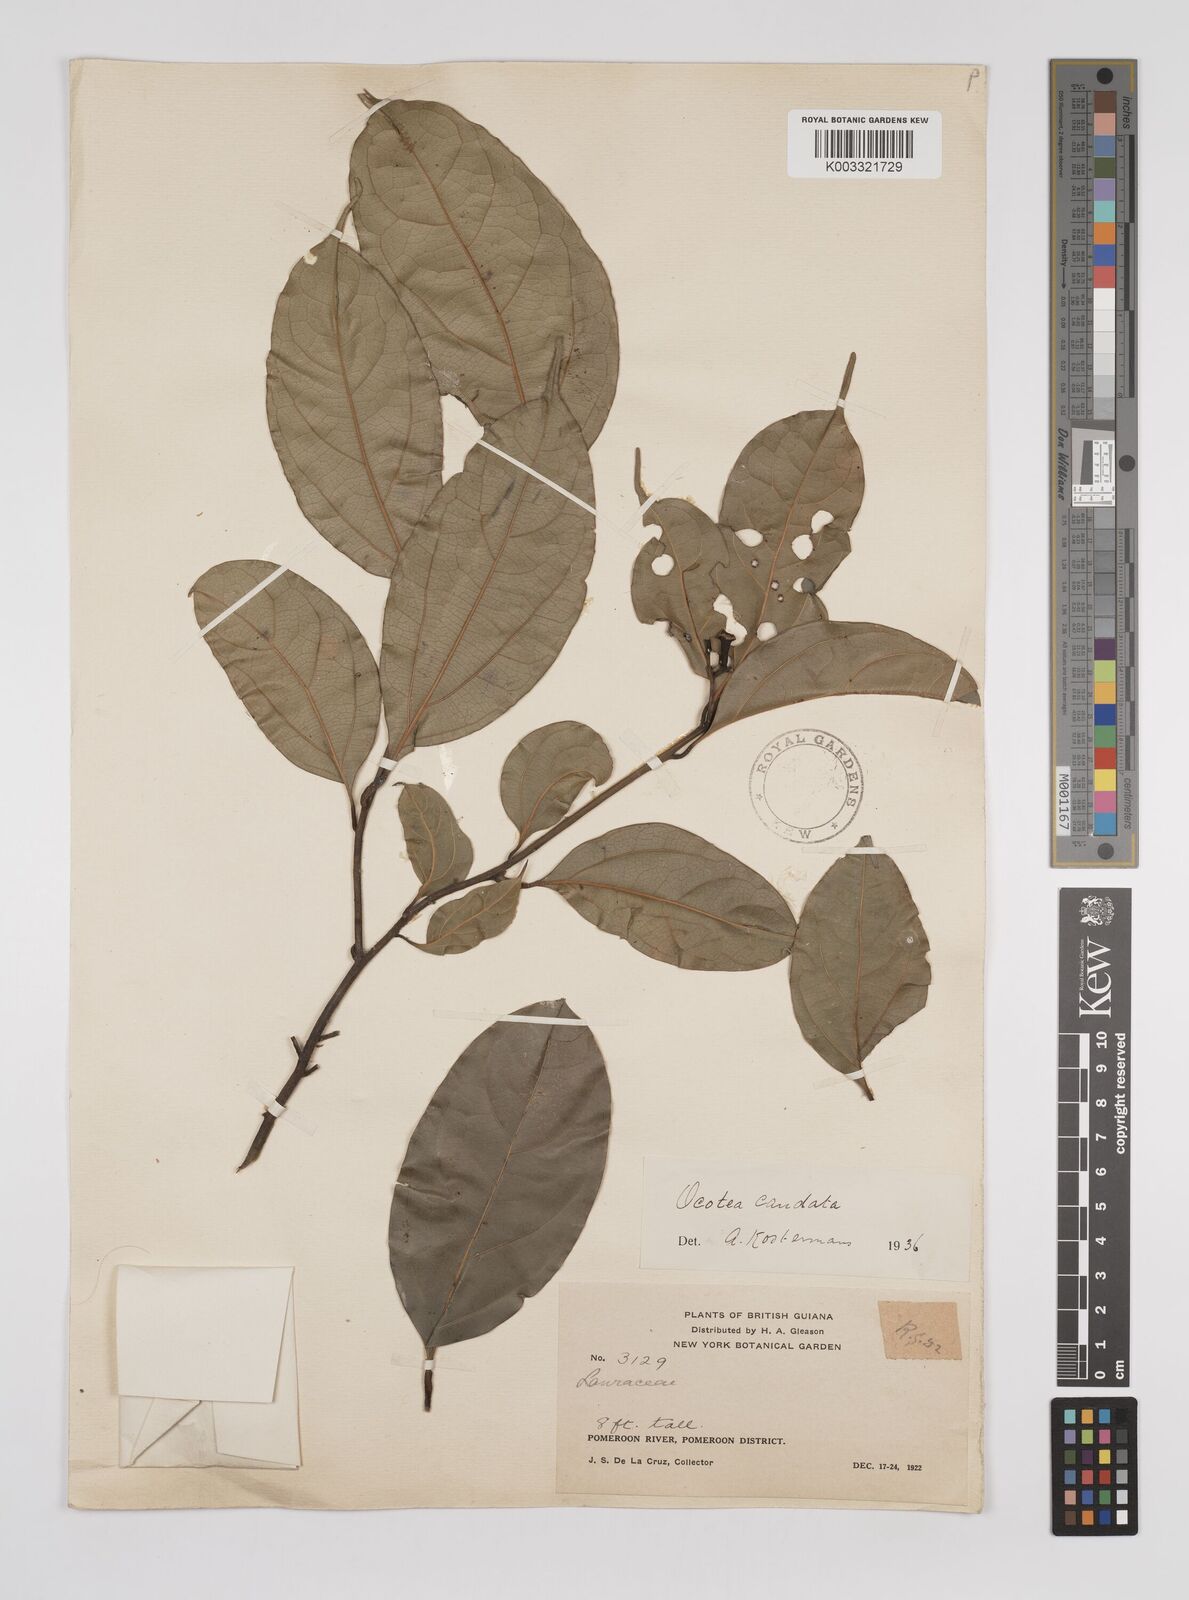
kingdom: Plantae
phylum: Tracheophyta
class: Magnoliopsida
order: Laurales
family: Lauraceae
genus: Ocotea
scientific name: Ocotea leptobotra
